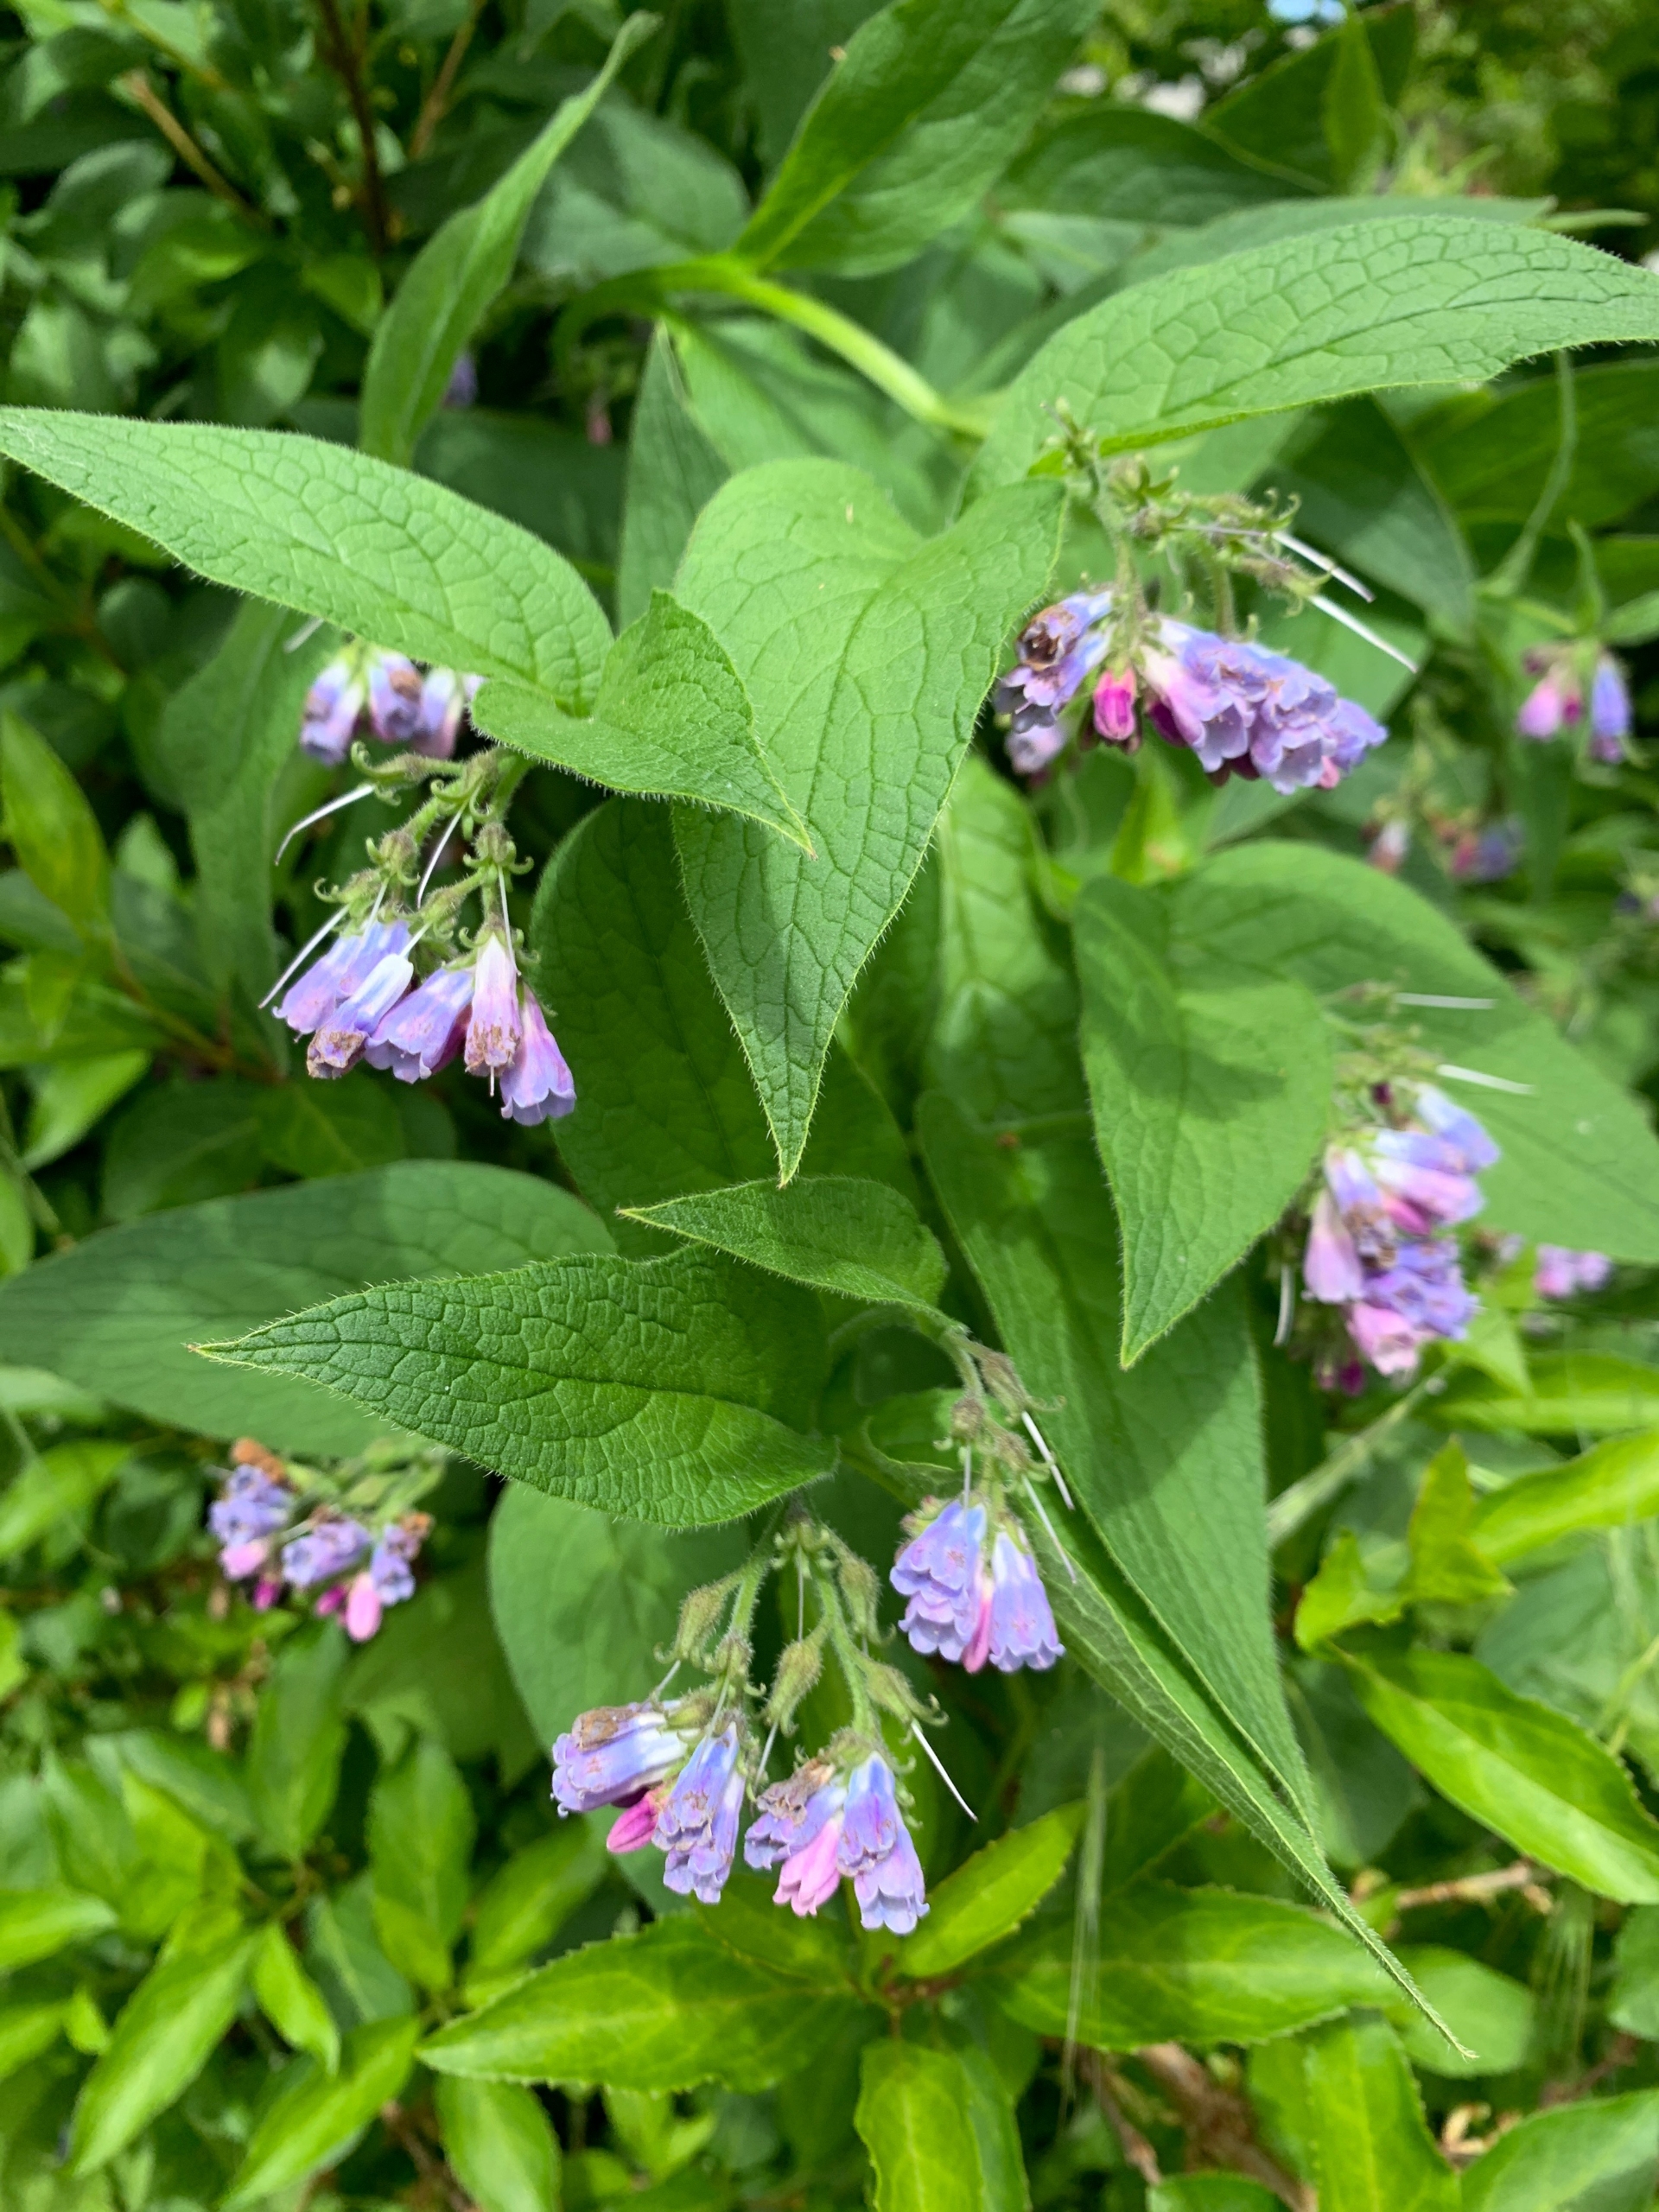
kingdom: Plantae
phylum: Tracheophyta
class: Magnoliopsida
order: Boraginales
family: Boraginaceae
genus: Symphytum
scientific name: Symphytum uplandicum
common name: Foder-kulsukker
